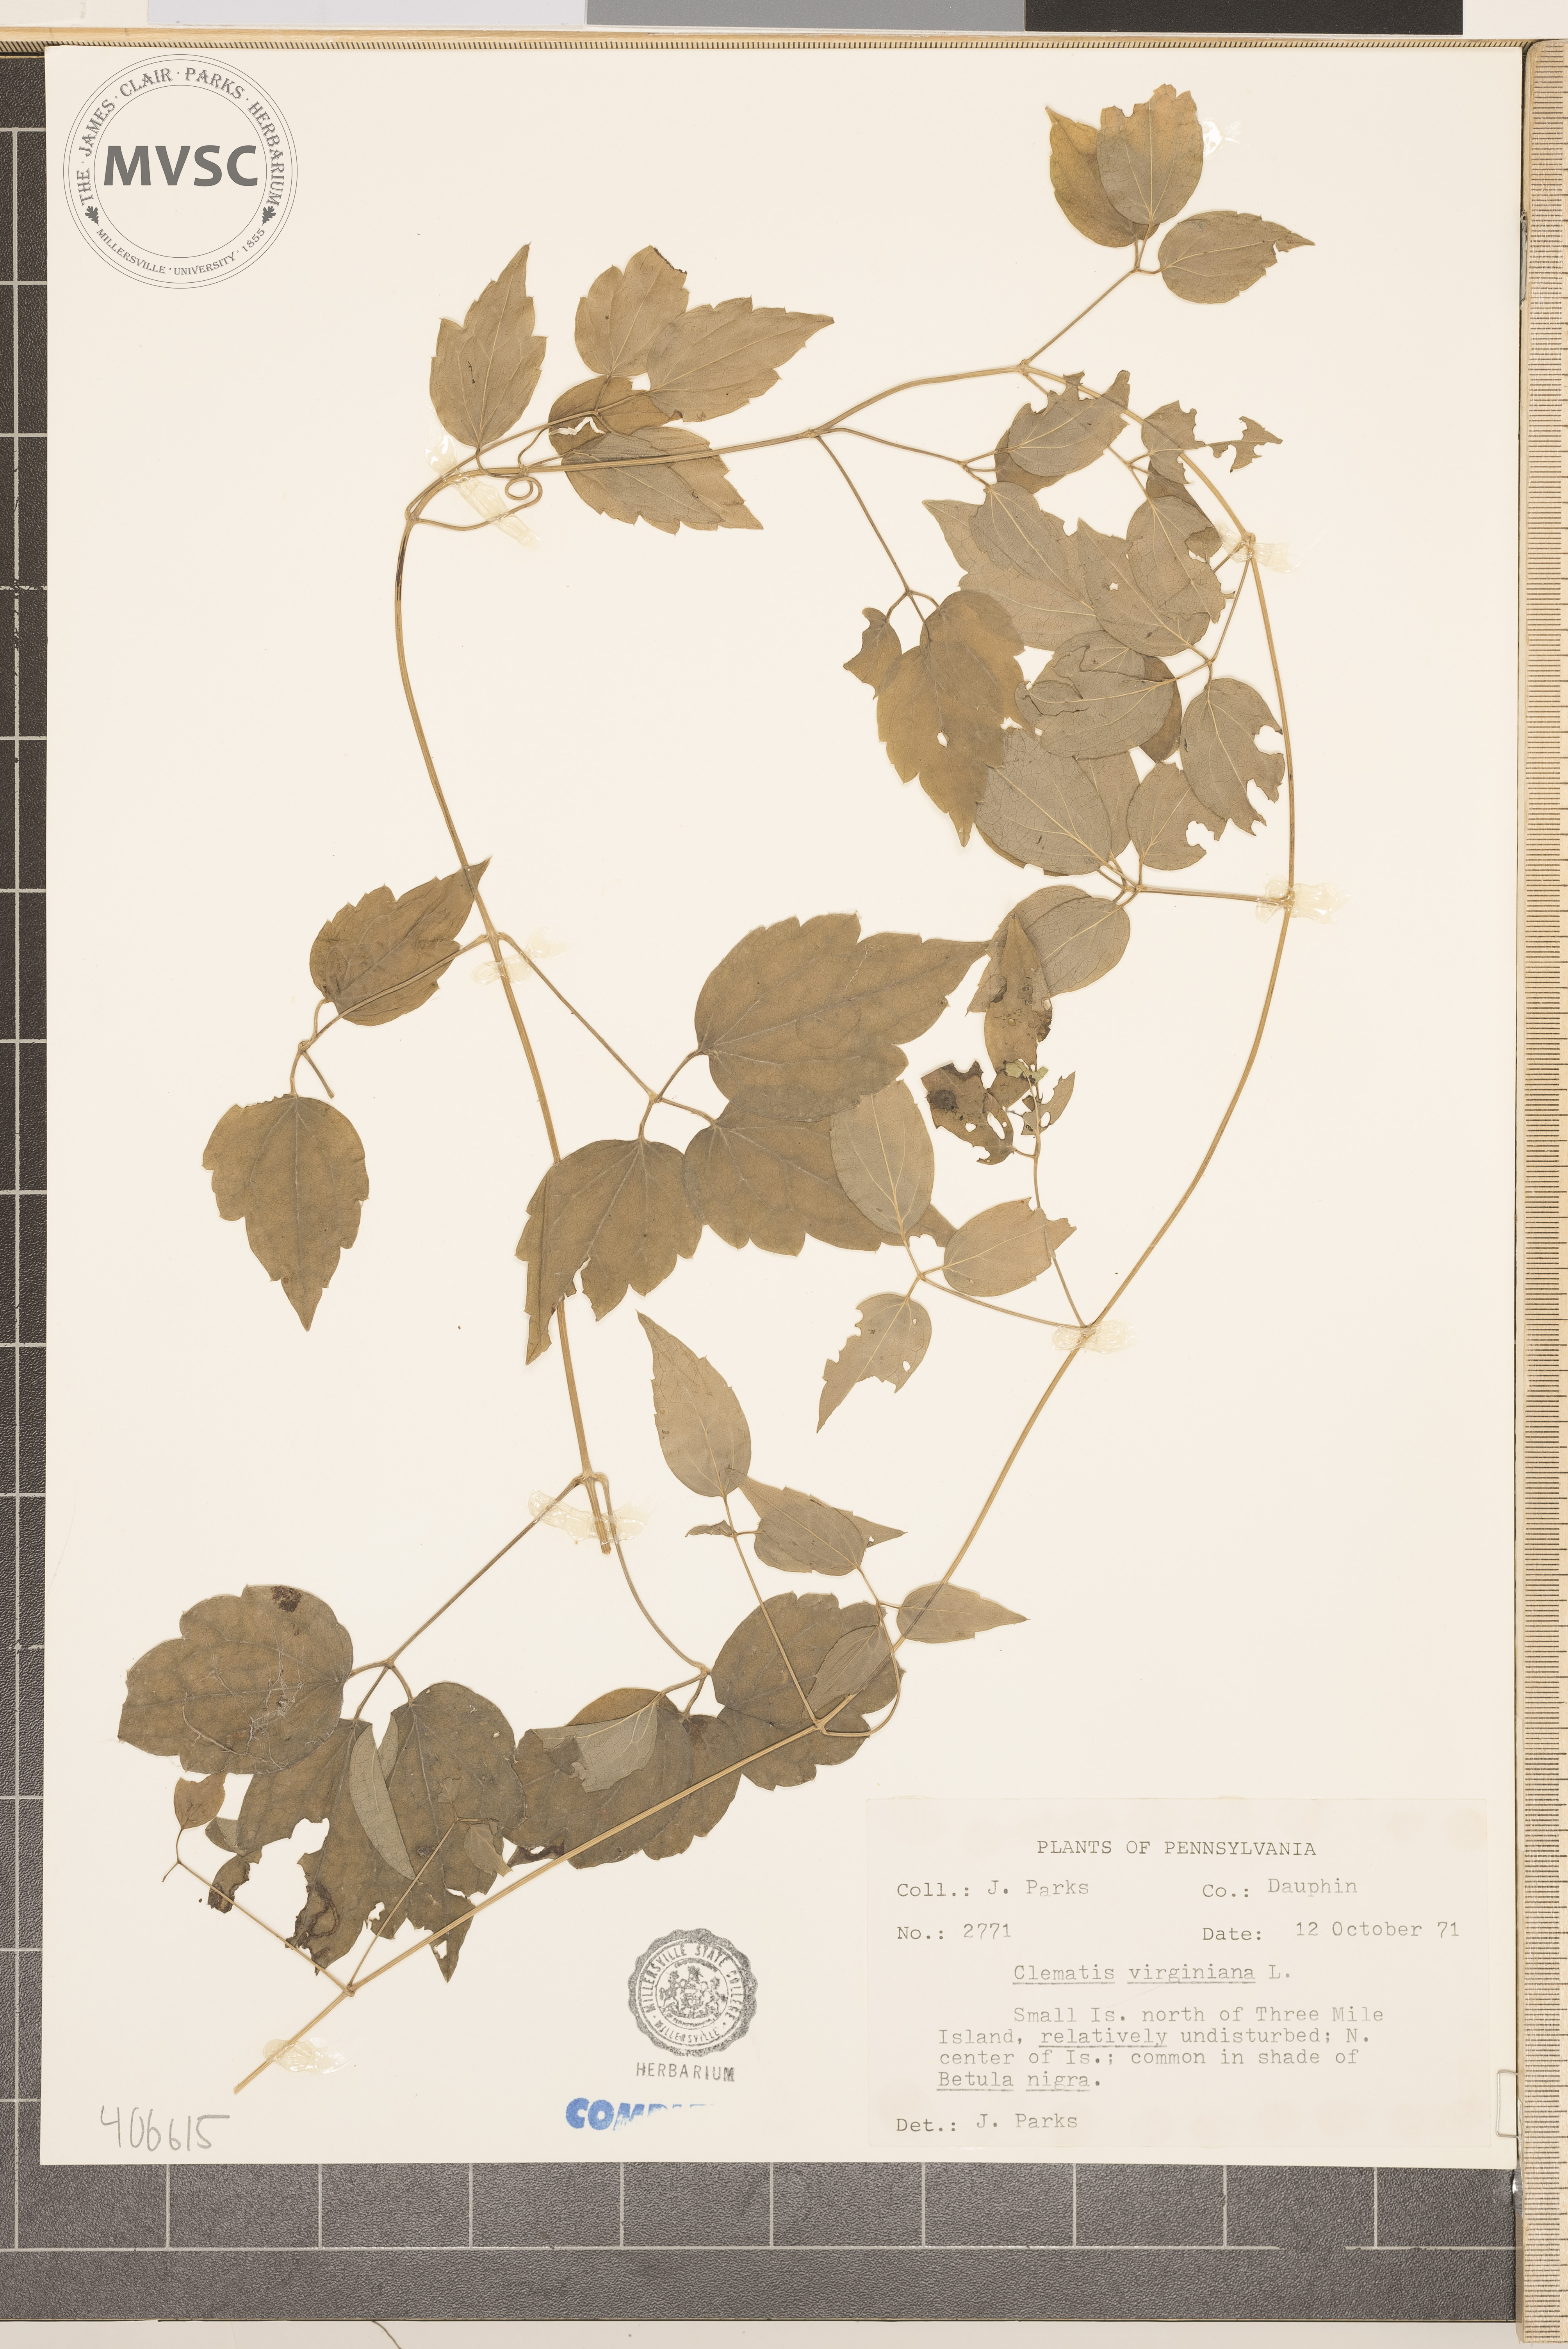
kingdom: Plantae
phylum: Tracheophyta
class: Magnoliopsida
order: Ranunculales
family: Ranunculaceae
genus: Clematis
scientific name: Clematis virginiana
